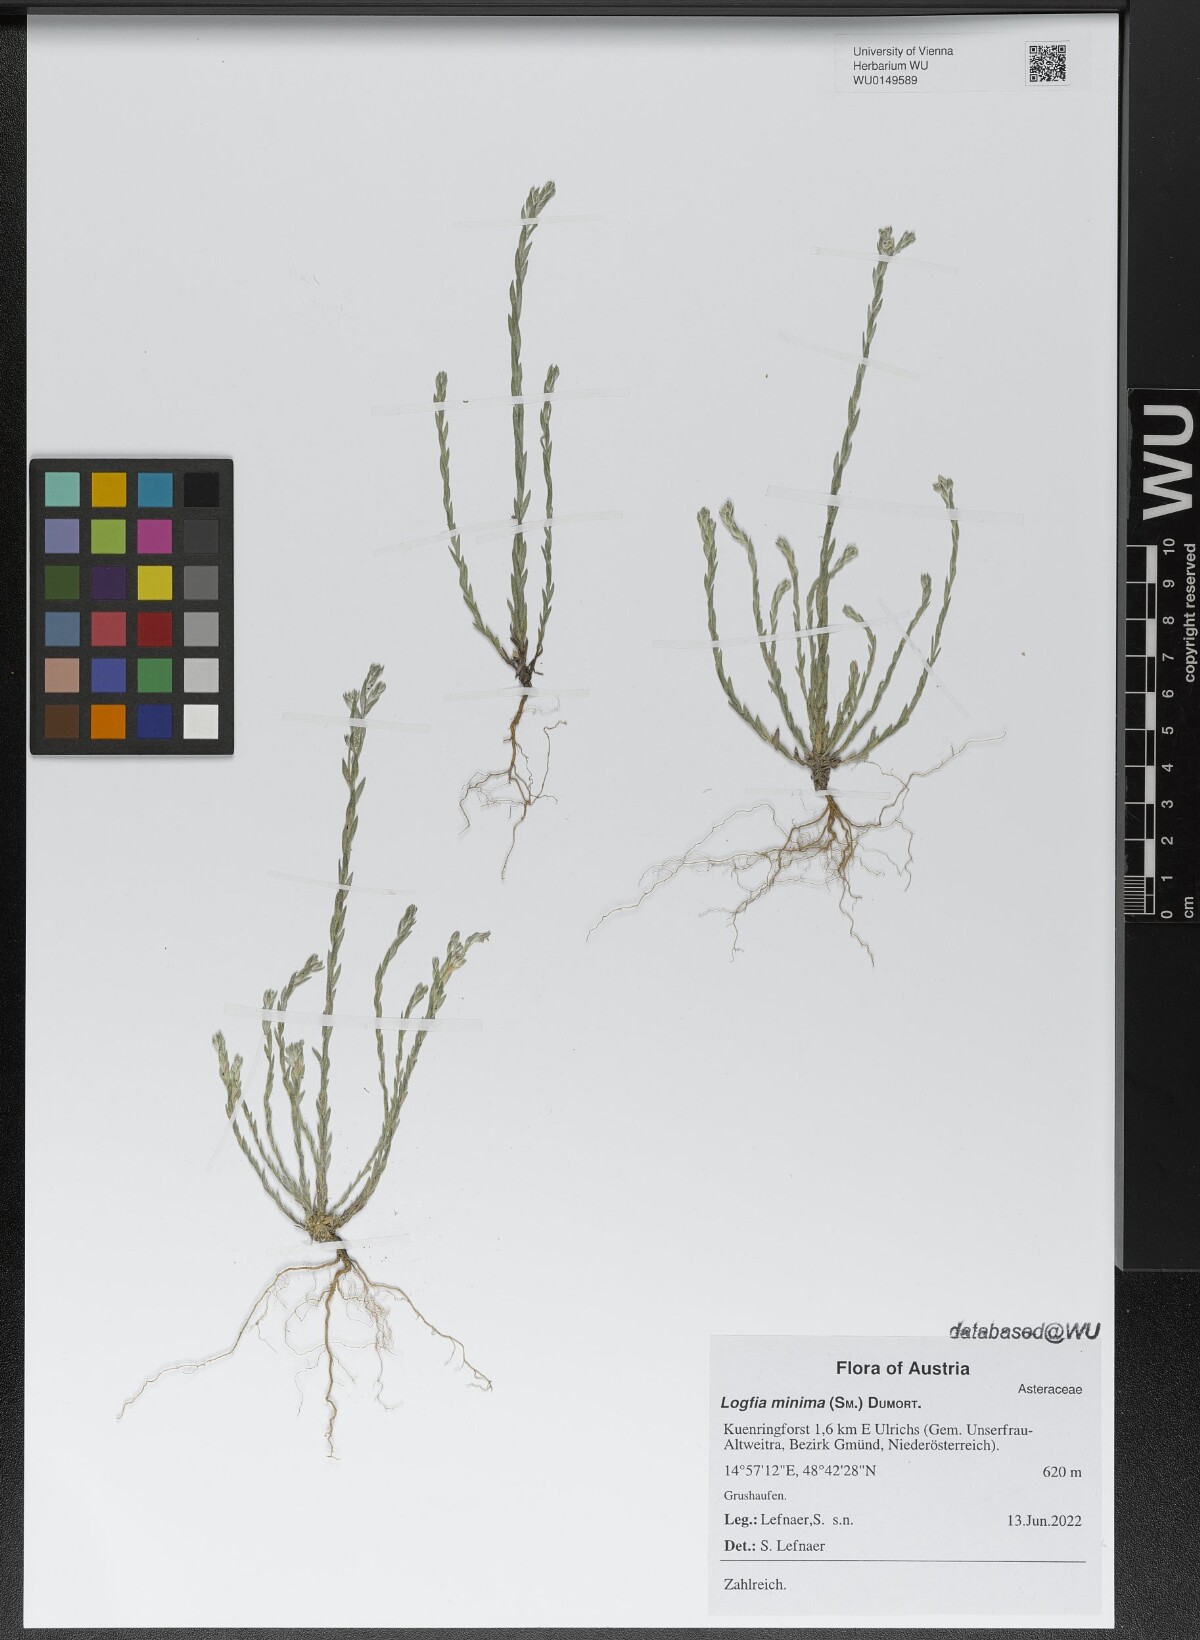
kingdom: Plantae
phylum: Tracheophyta
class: Magnoliopsida
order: Asterales
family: Asteraceae
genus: Logfia
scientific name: Logfia minima
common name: Little cottonrose
